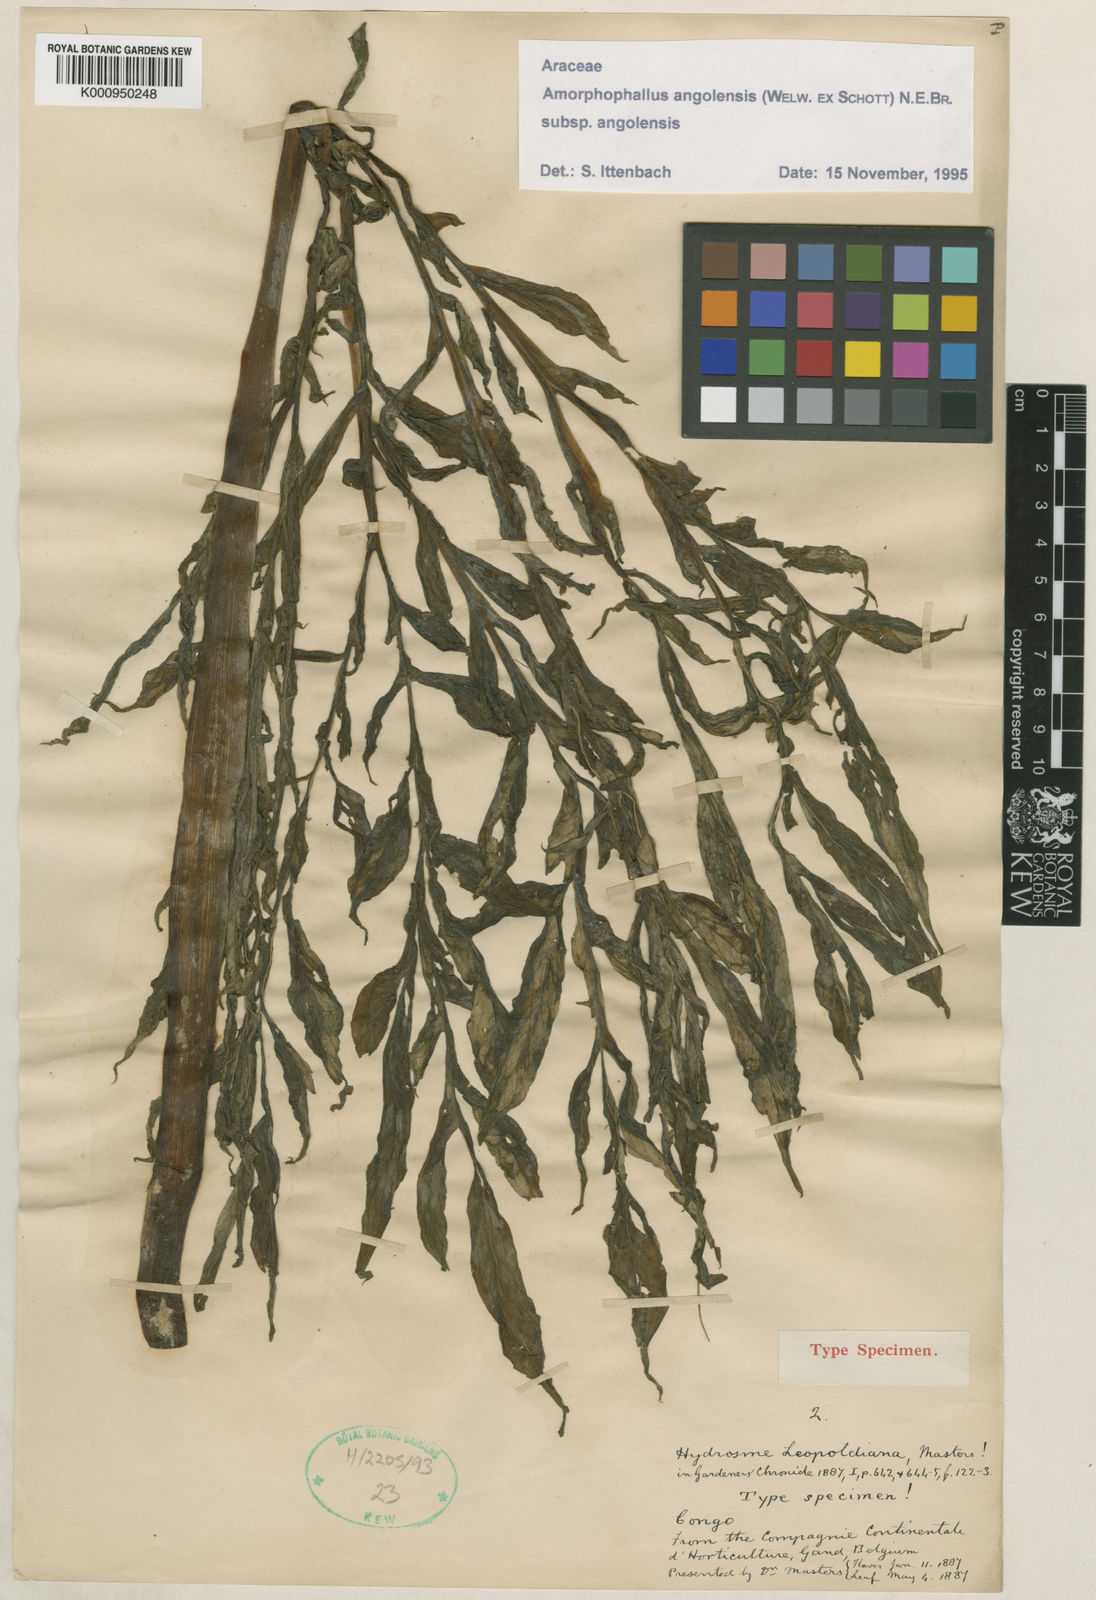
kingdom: Plantae
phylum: Tracheophyta
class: Liliopsida
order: Alismatales
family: Araceae
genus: Amorphophallus
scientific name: Amorphophallus angolensis
